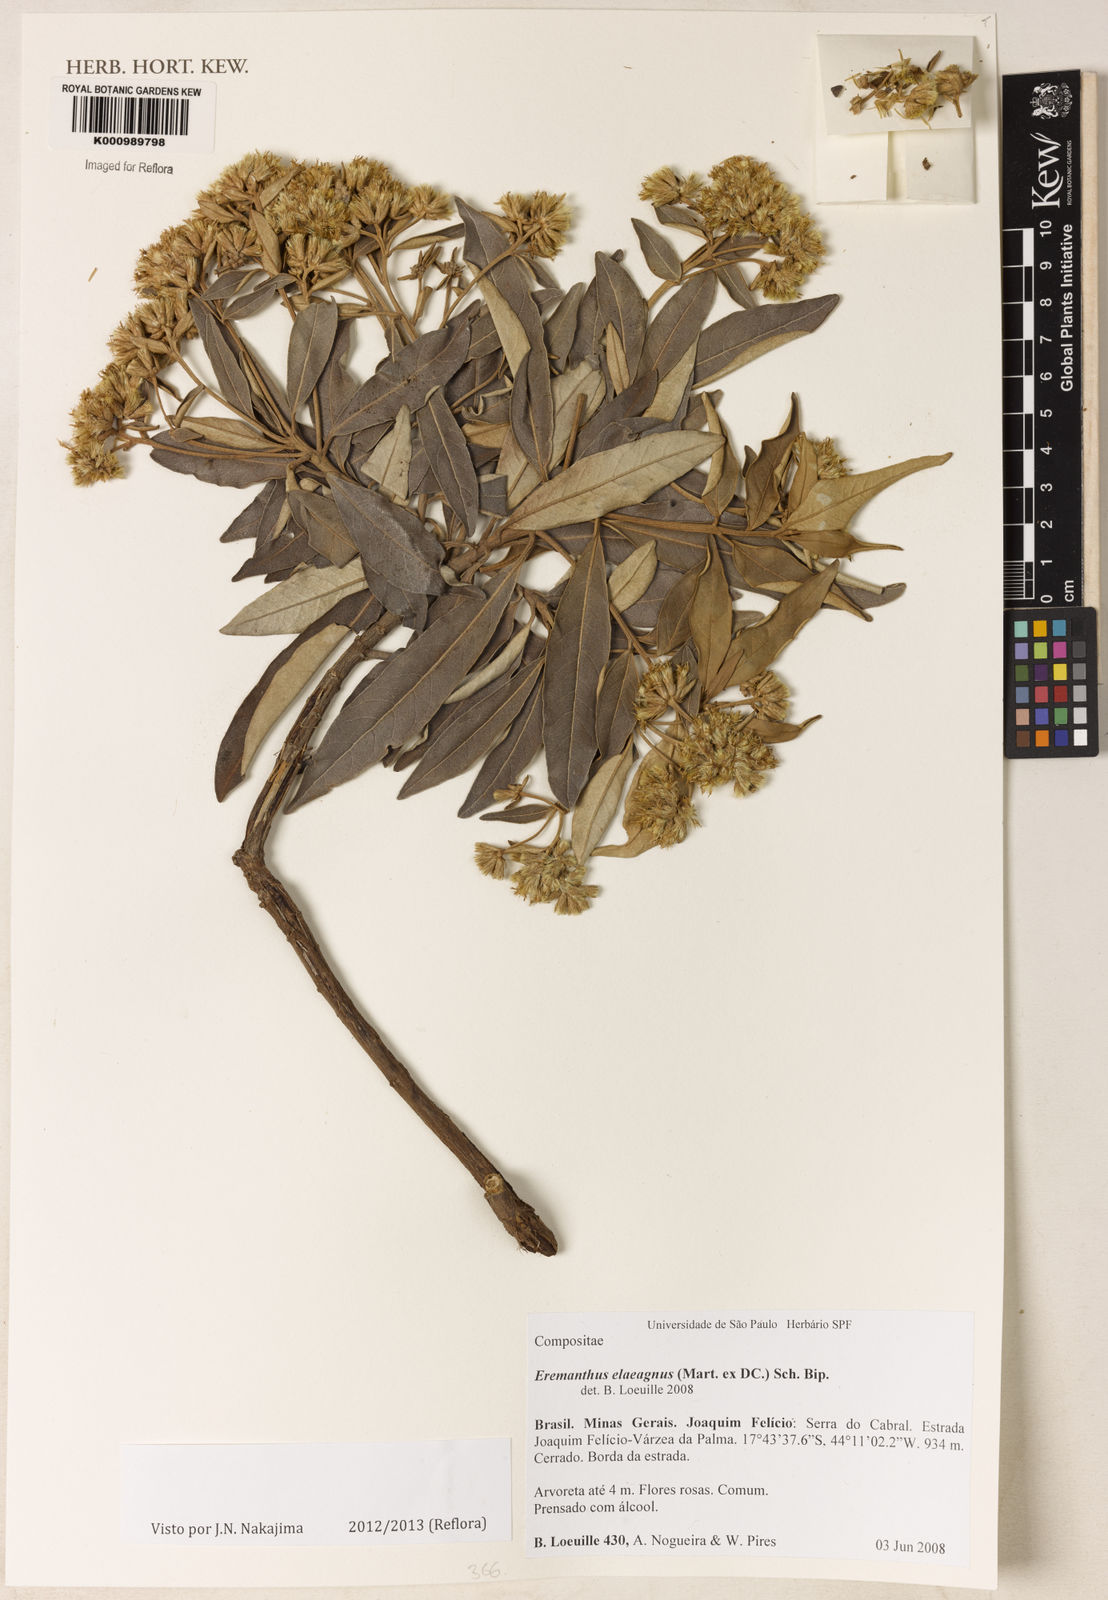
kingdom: Plantae
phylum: Tracheophyta
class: Magnoliopsida
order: Asterales
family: Asteraceae
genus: Eremanthus
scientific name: Eremanthus elaeagnus
